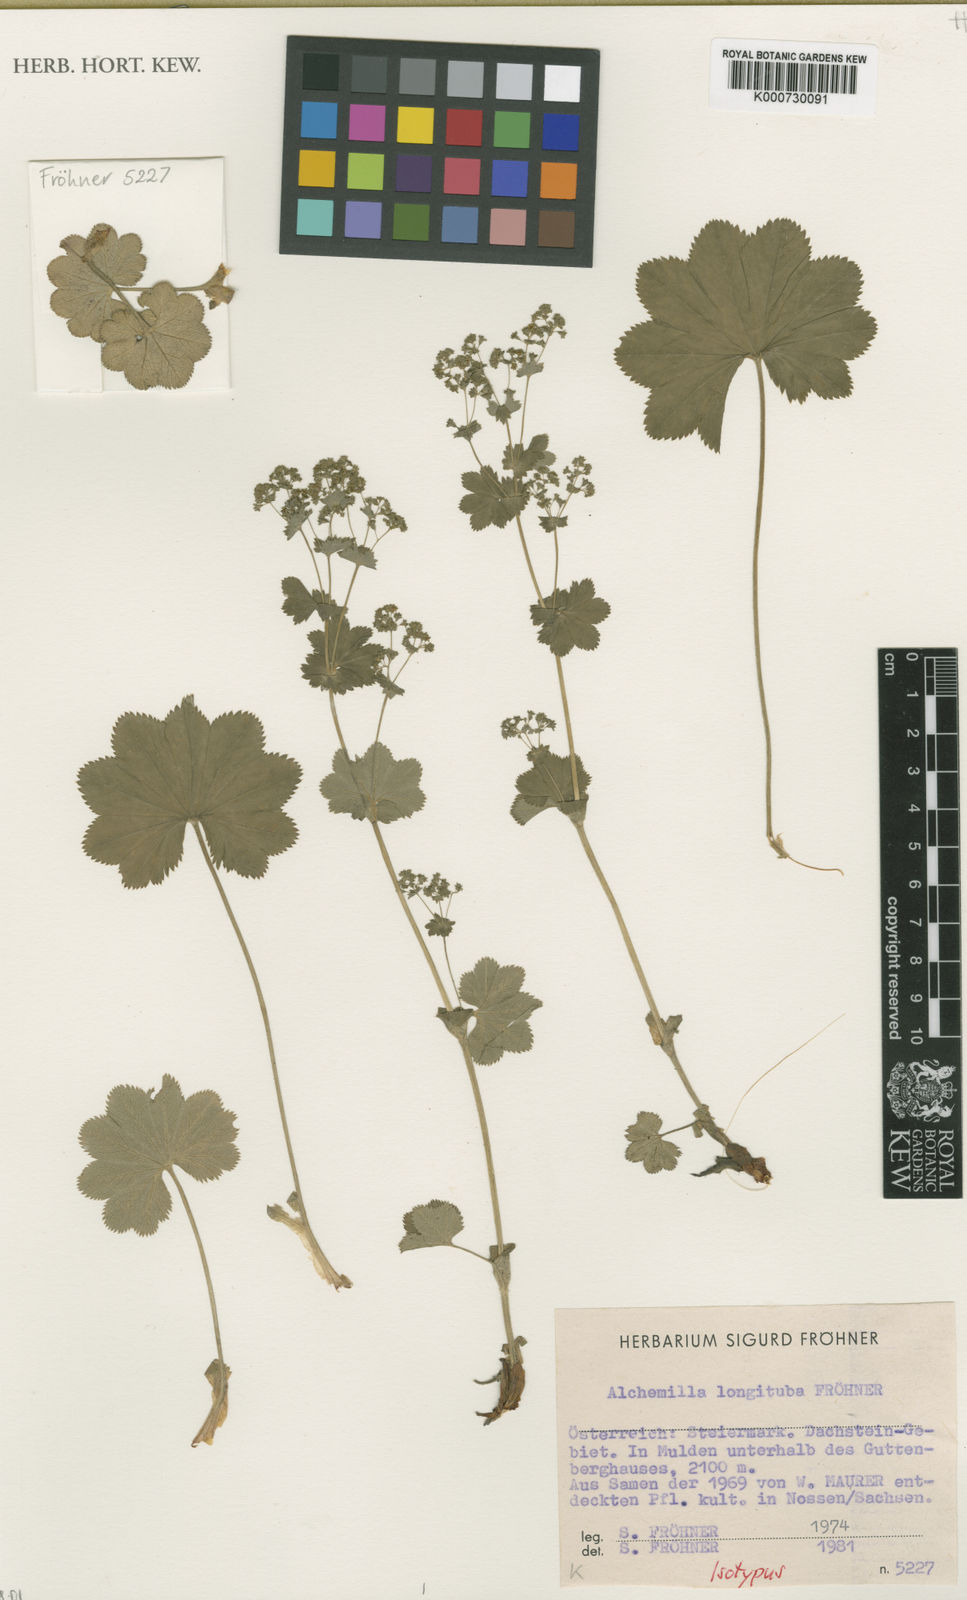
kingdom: Plantae
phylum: Tracheophyta
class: Magnoliopsida
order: Rosales
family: Rosaceae
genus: Alchemilla
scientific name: Alchemilla
